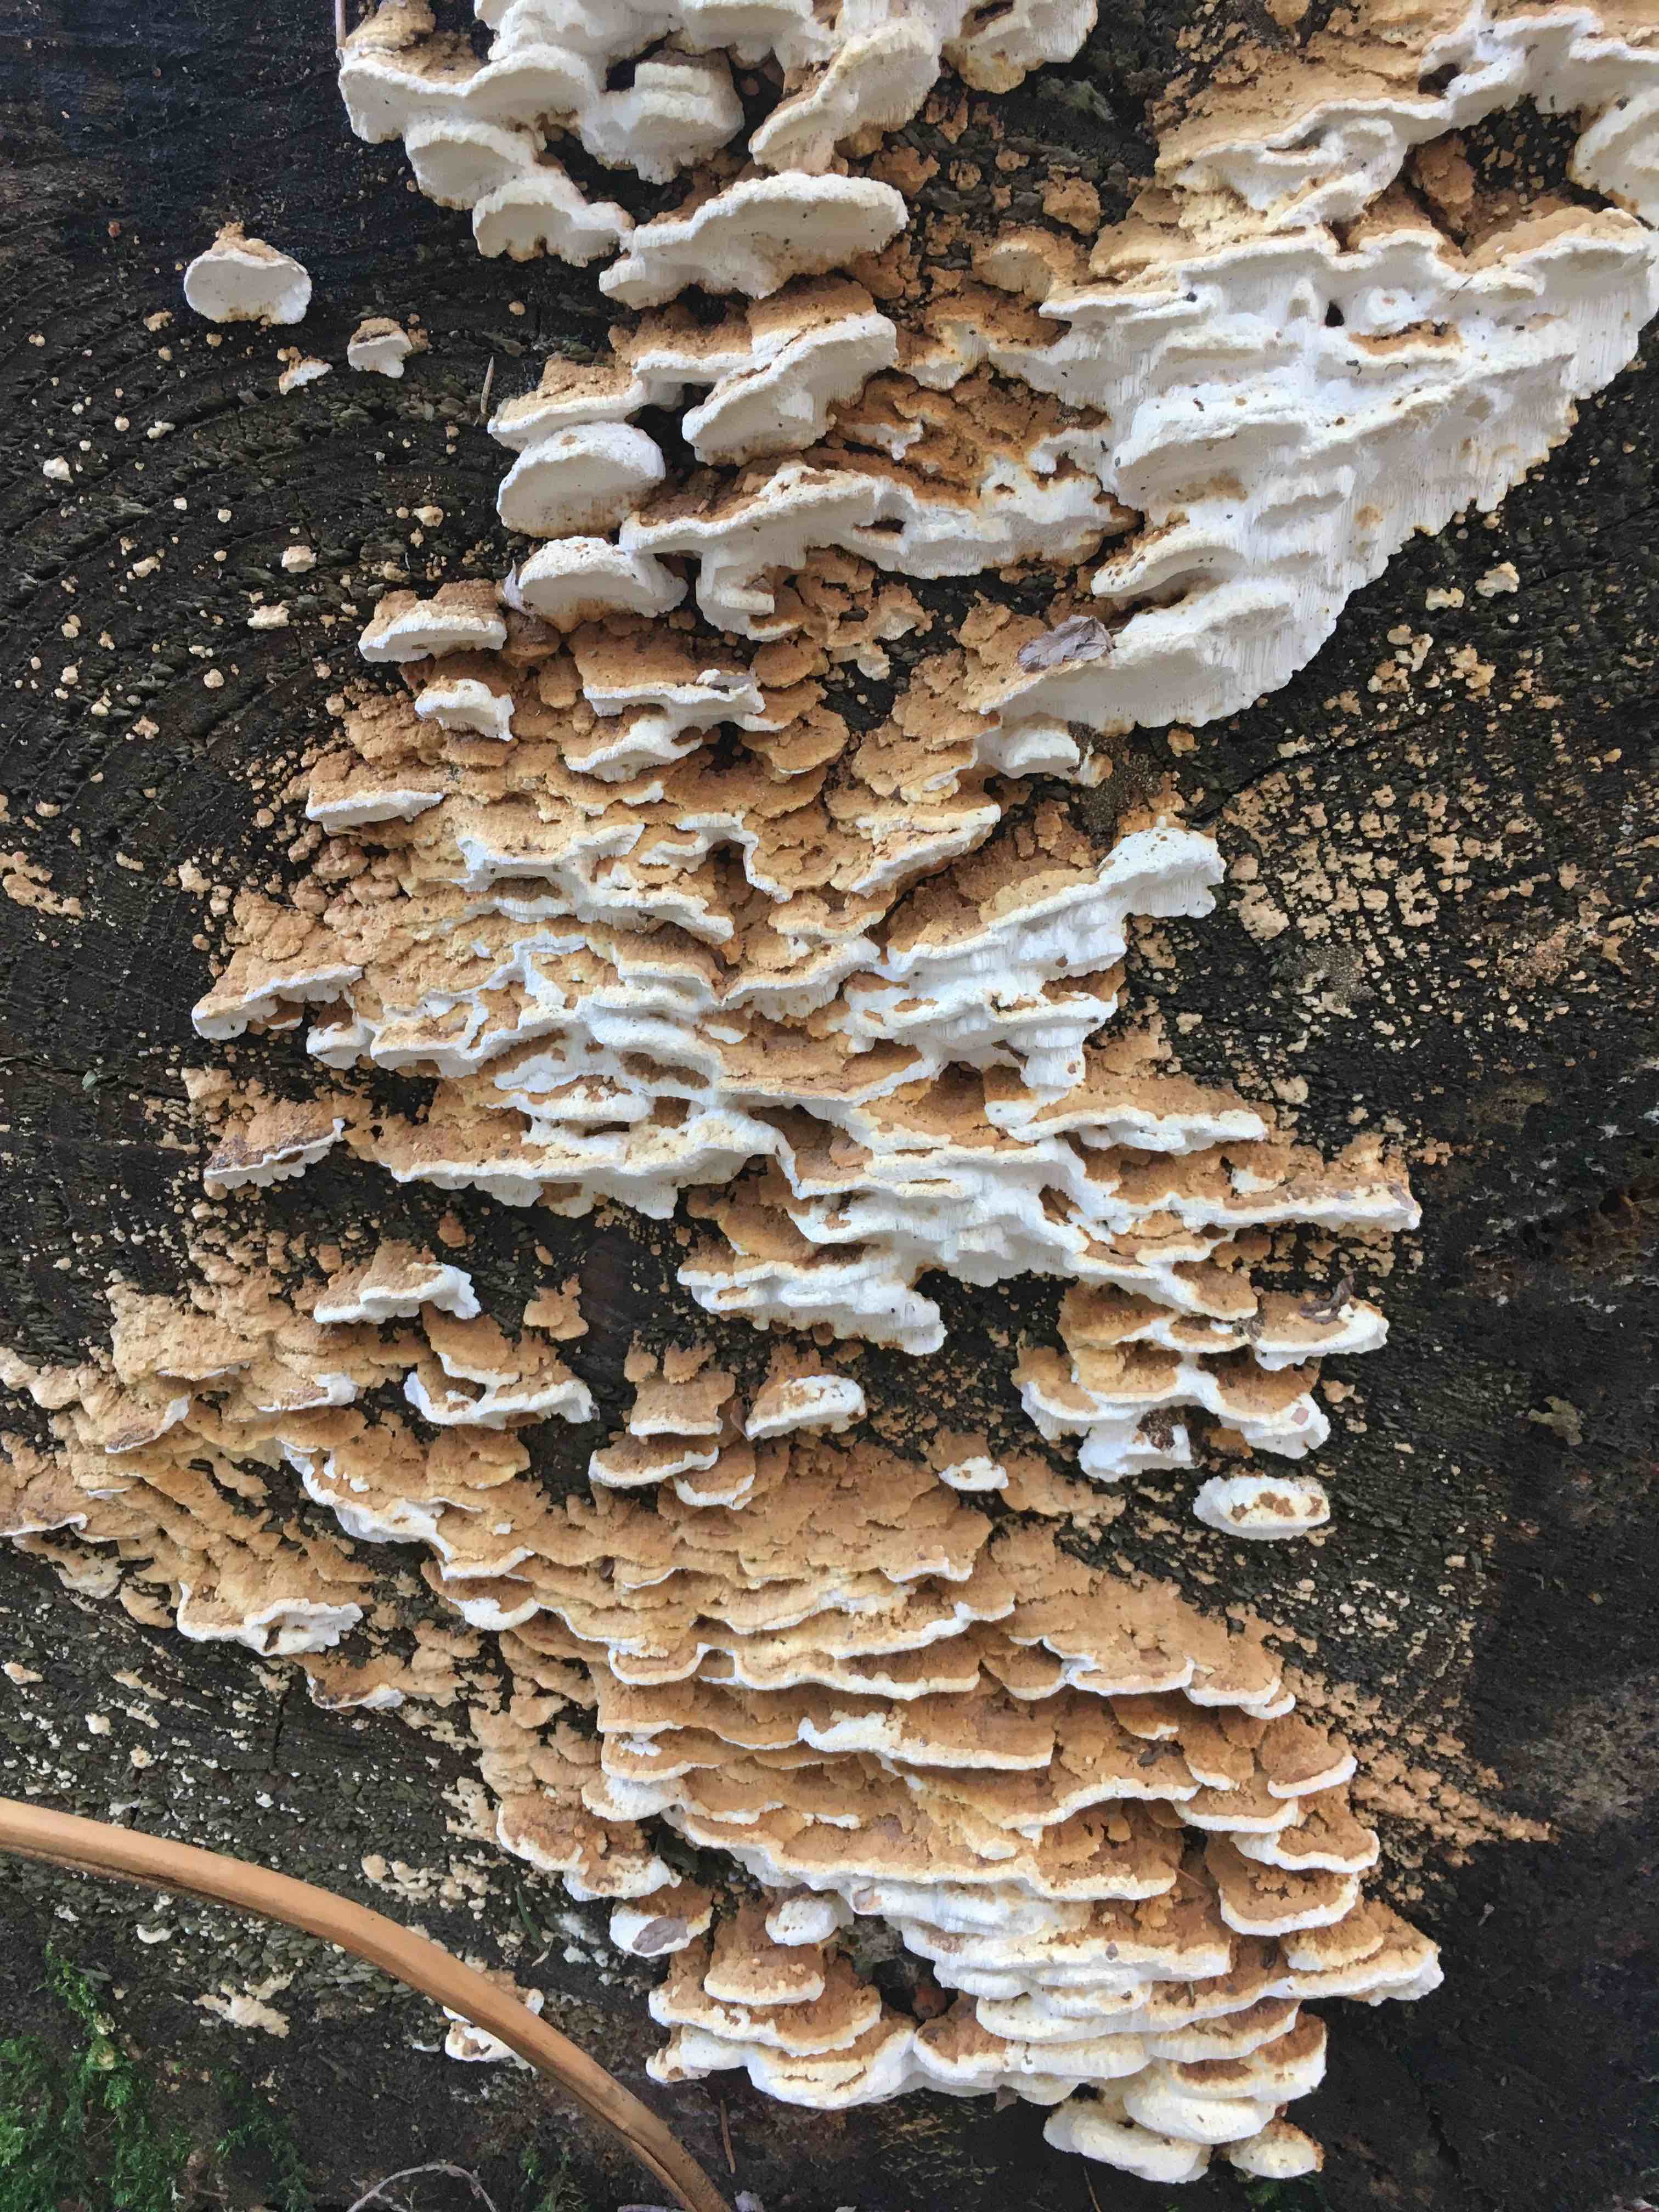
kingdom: Fungi
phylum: Basidiomycota
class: Agaricomycetes
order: Polyporales
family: Fomitopsidaceae
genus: Neoantrodia
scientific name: Neoantrodia serialis
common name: række-sejporesvamp
